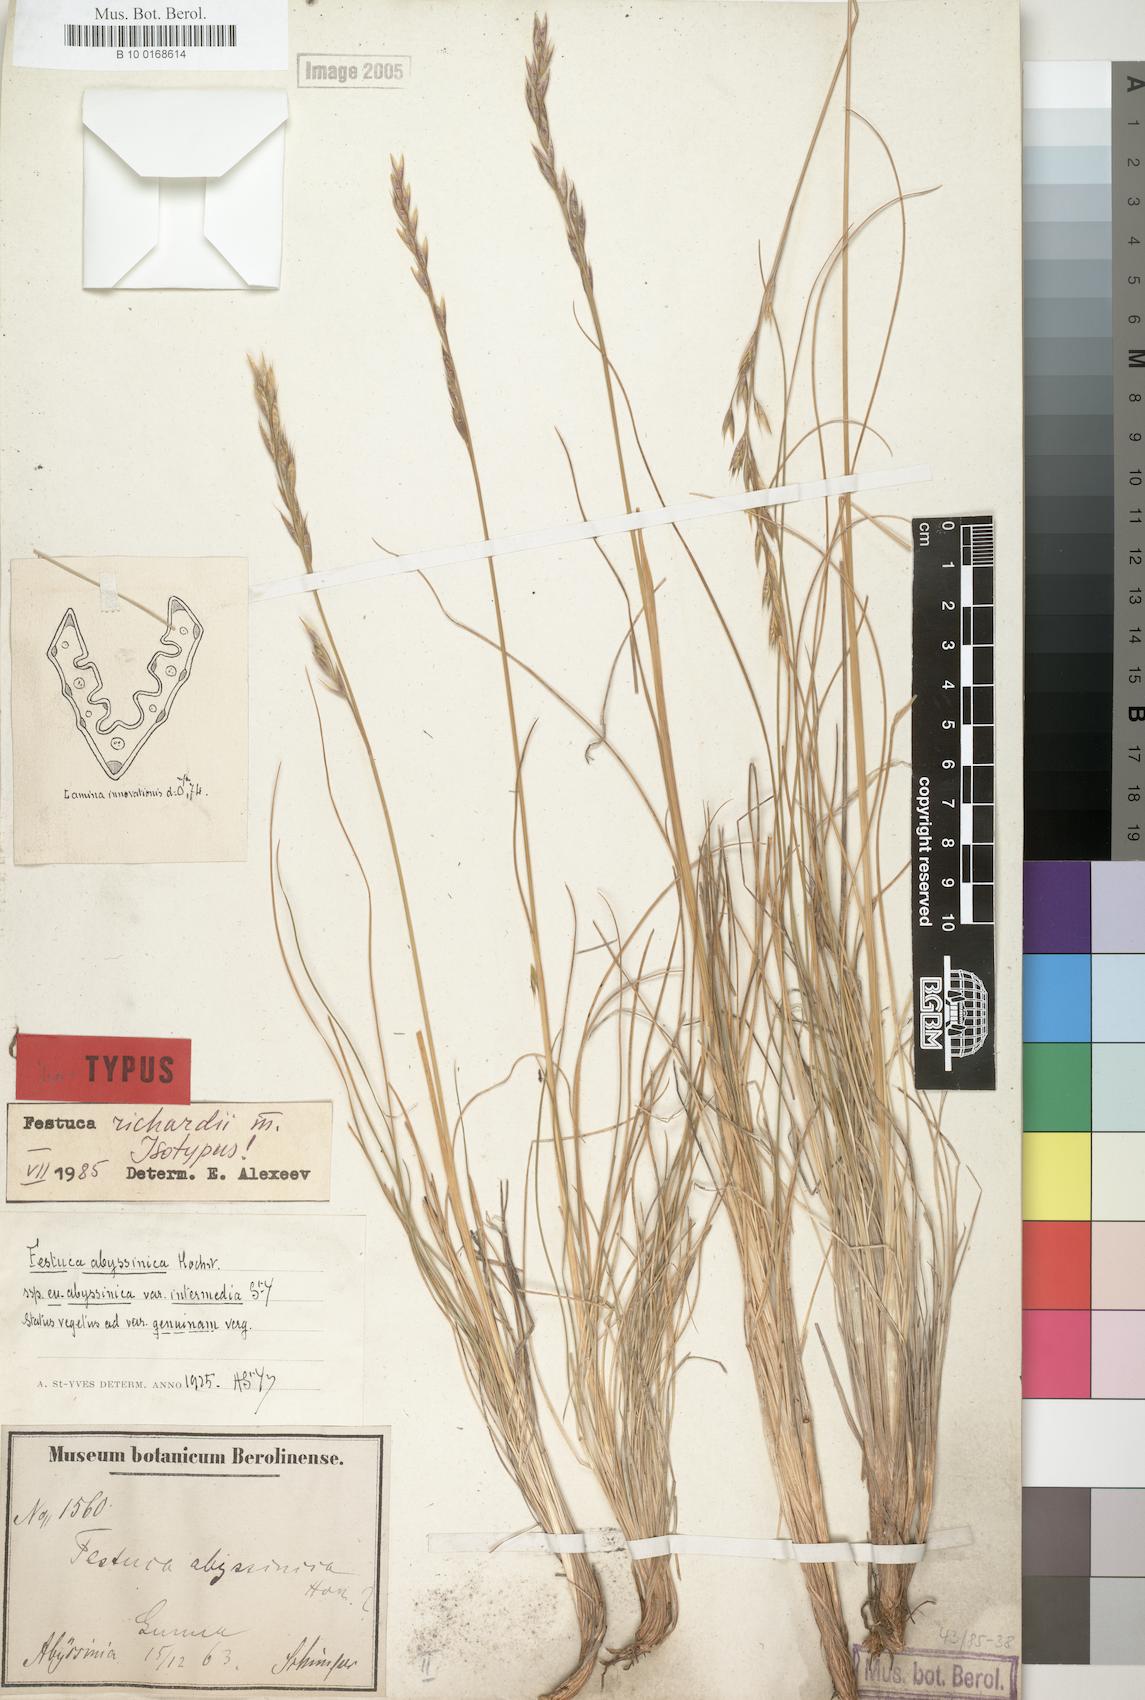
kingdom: Plantae
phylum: Tracheophyta
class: Liliopsida
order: Poales
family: Poaceae
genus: Festuca
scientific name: Festuca richardii
